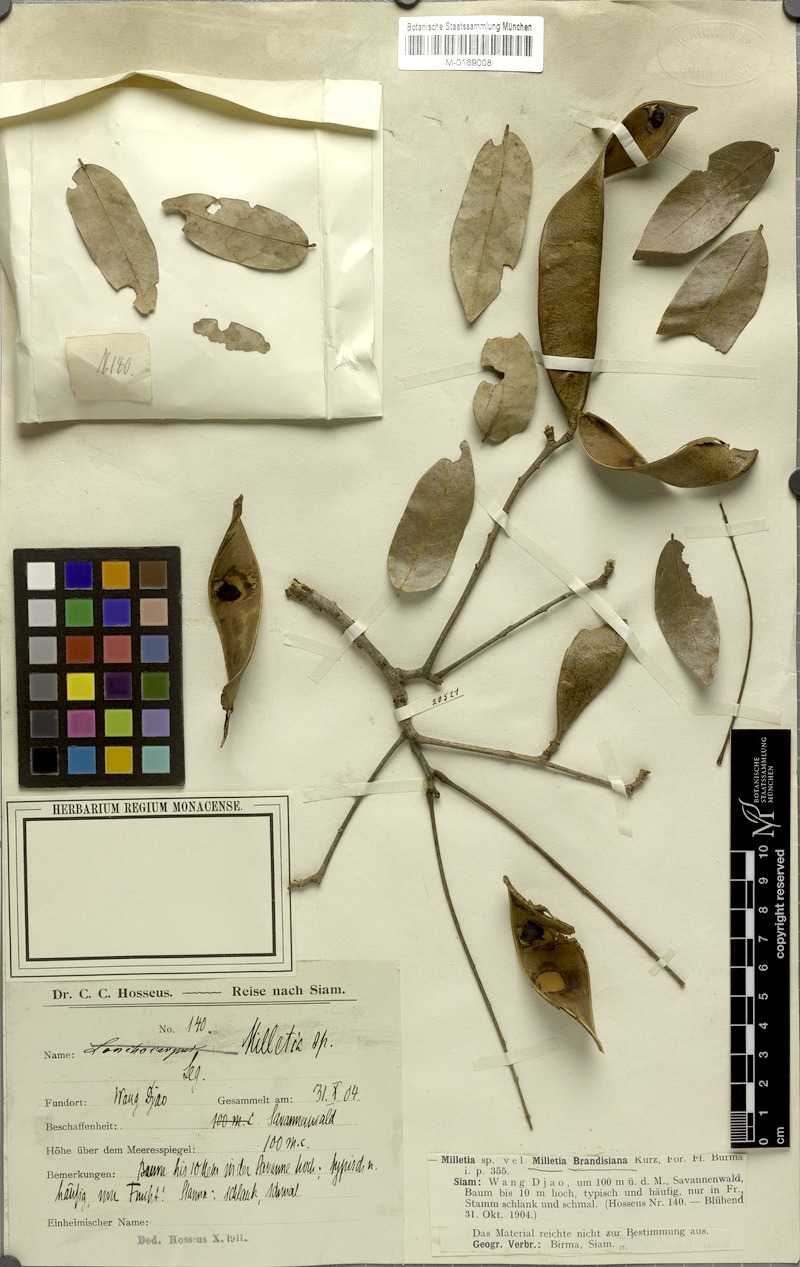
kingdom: Plantae
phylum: Tracheophyta
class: Magnoliopsida
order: Fabales
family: Fabaceae
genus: Millettia
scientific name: Millettia brandisiana
